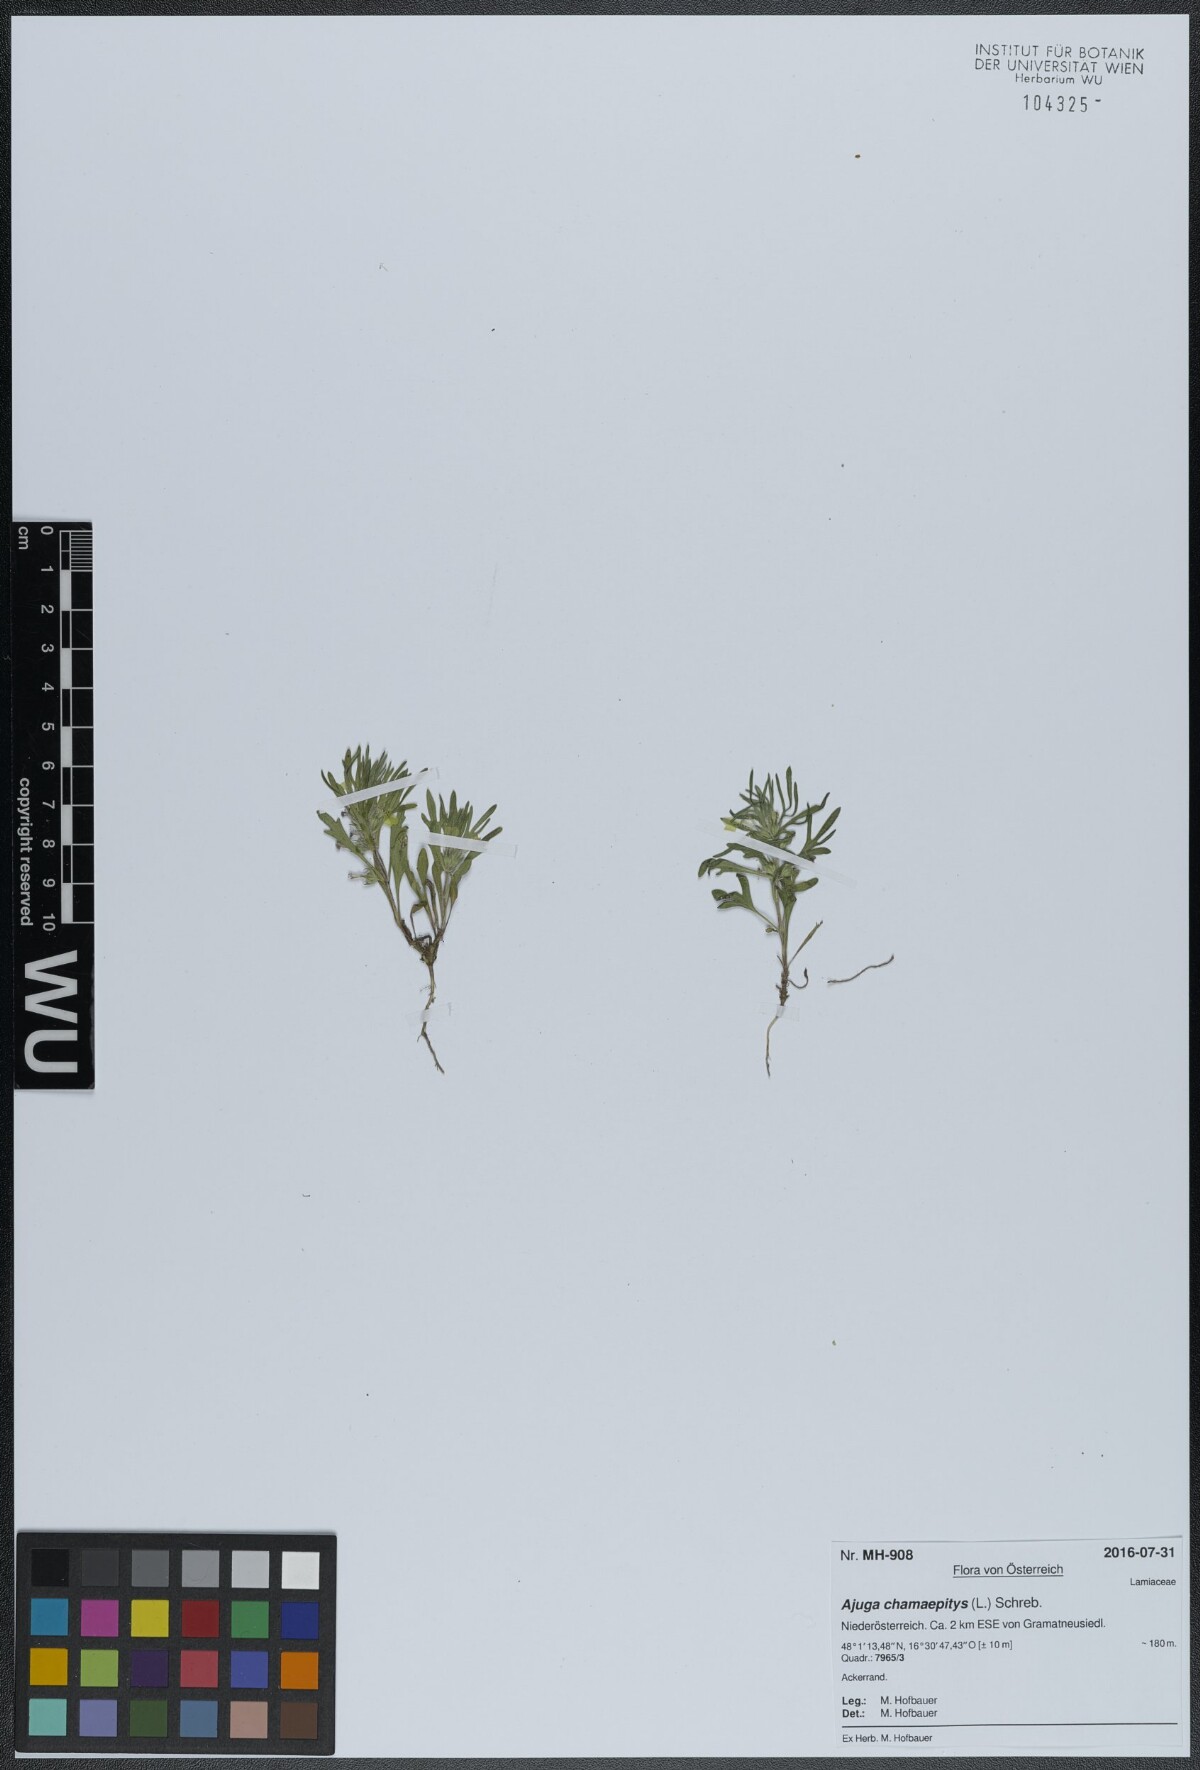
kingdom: Plantae
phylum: Tracheophyta
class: Magnoliopsida
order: Lamiales
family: Lamiaceae
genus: Ajuga
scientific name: Ajuga chamaepitys
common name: Ground-pine
